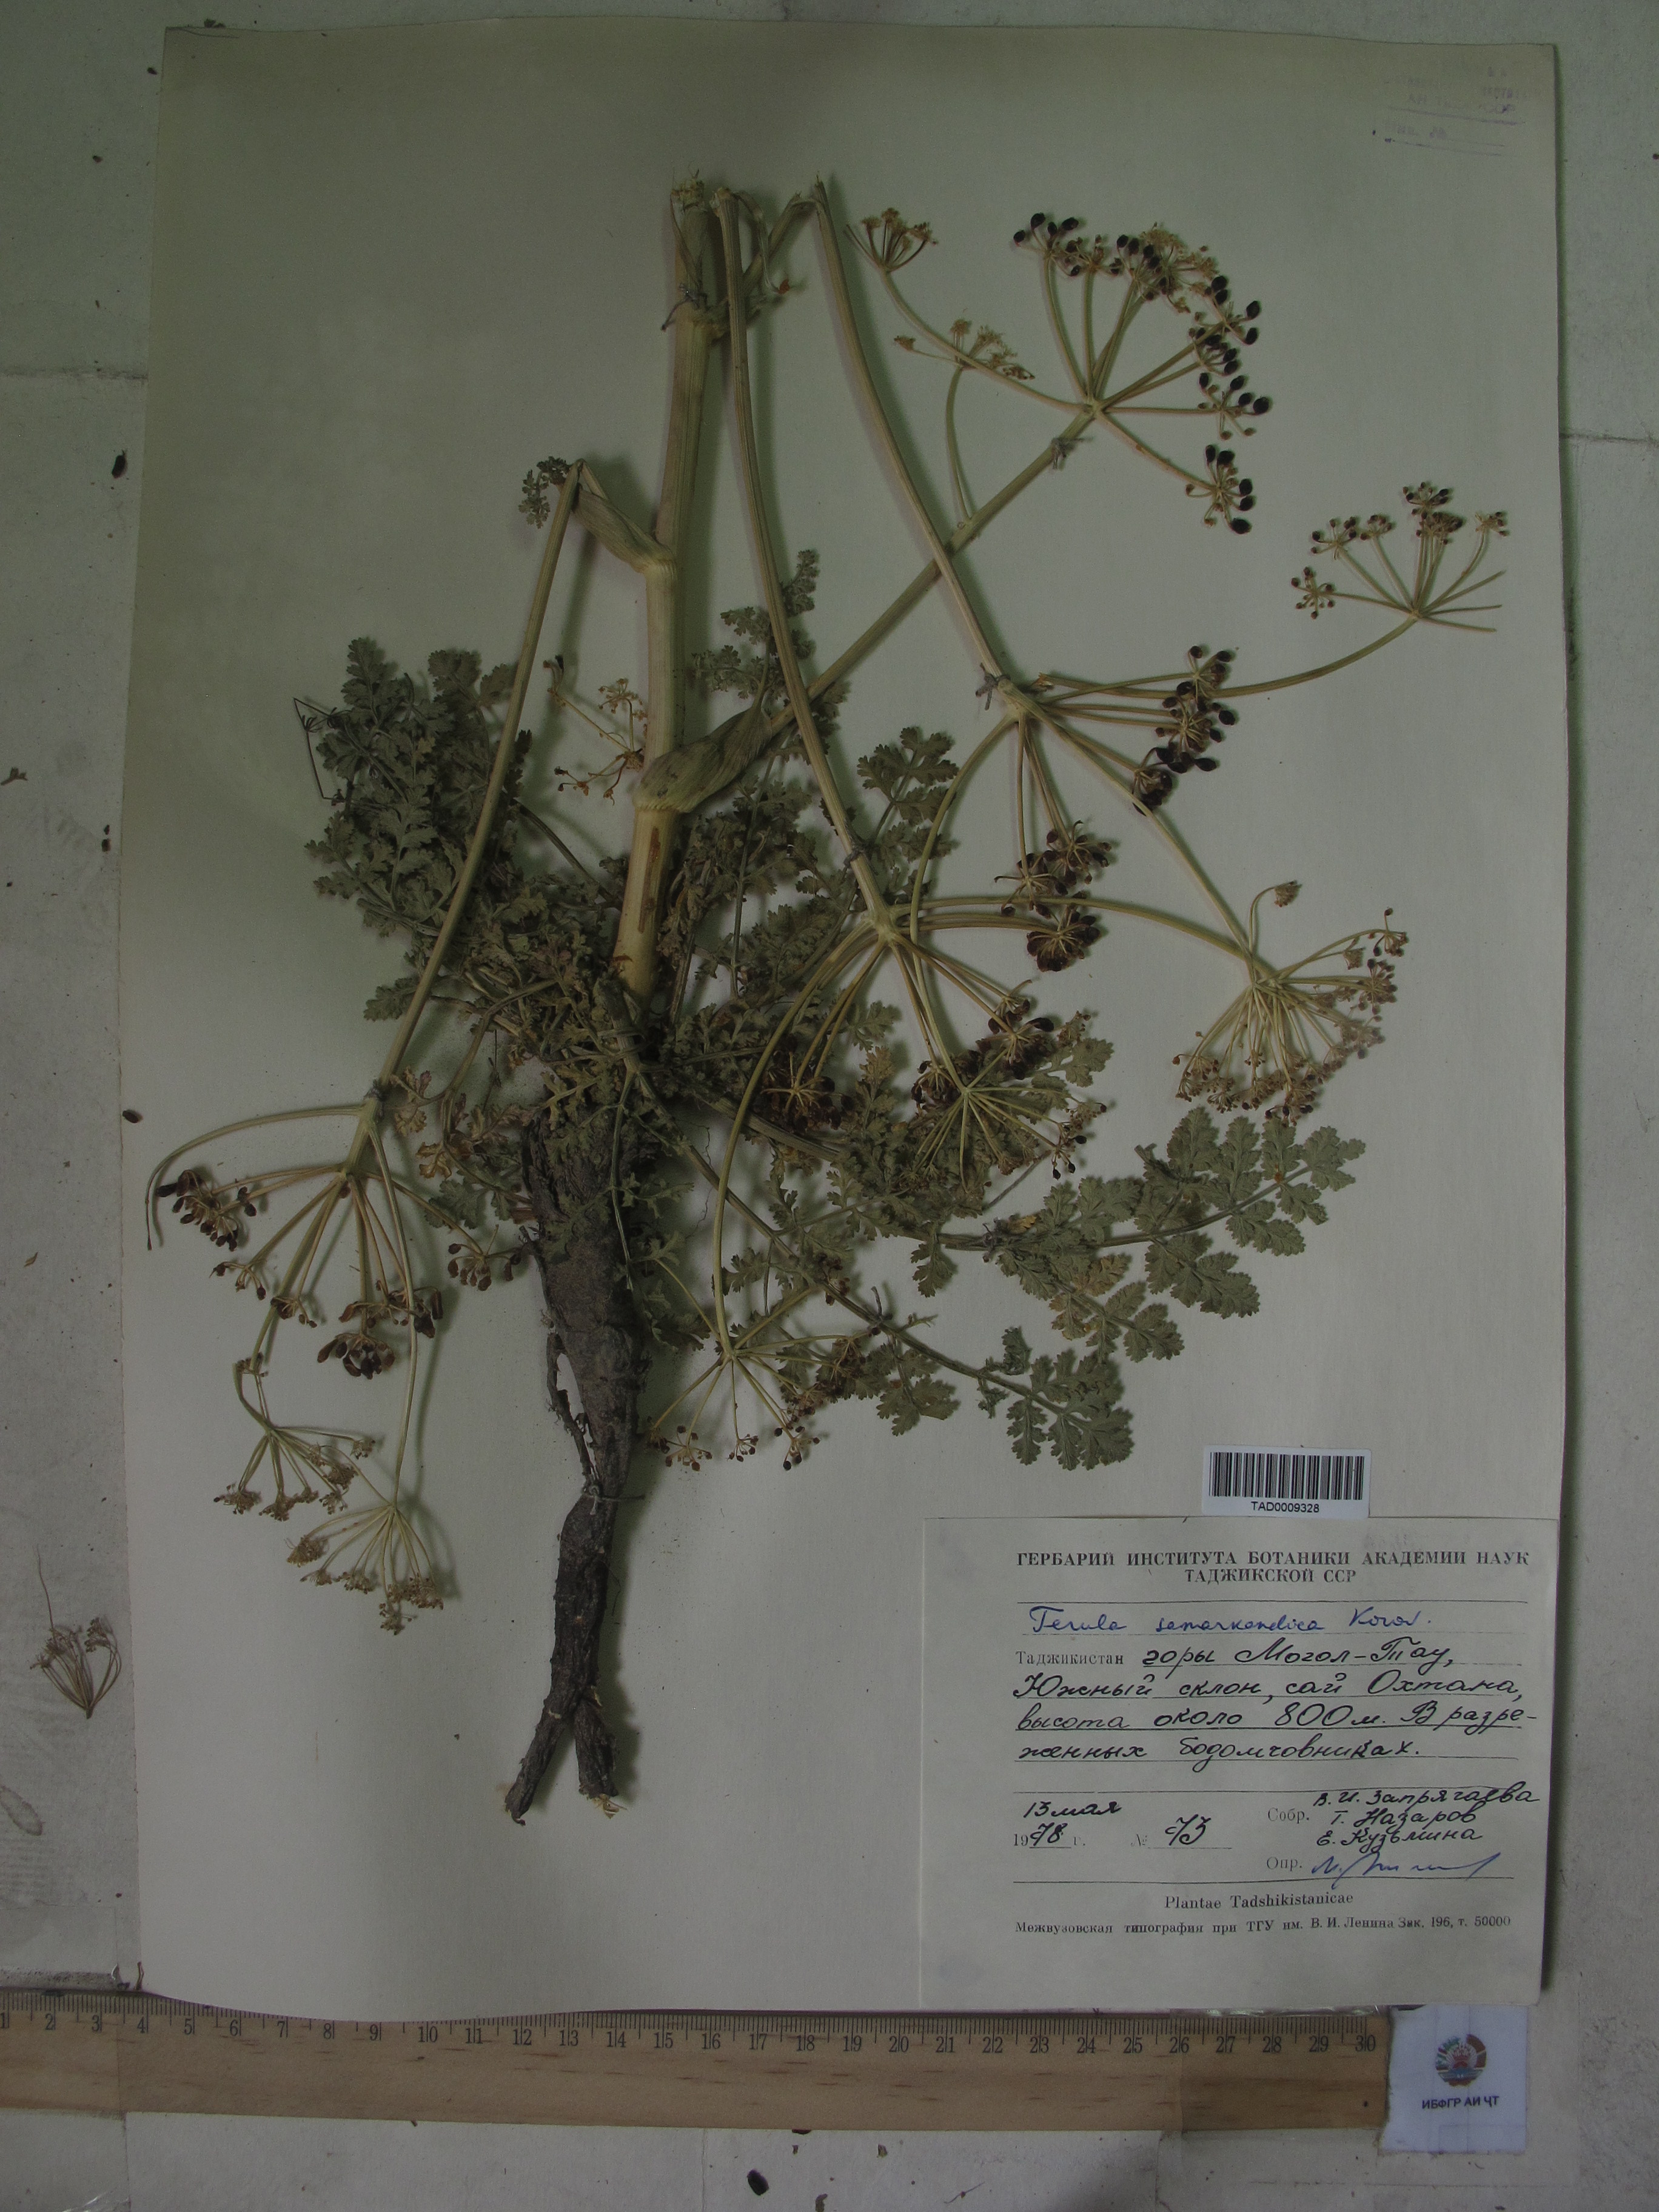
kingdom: Plantae
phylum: Tracheophyta
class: Magnoliopsida
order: Apiales
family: Apiaceae
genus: Ferula
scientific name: Ferula samarkandica
